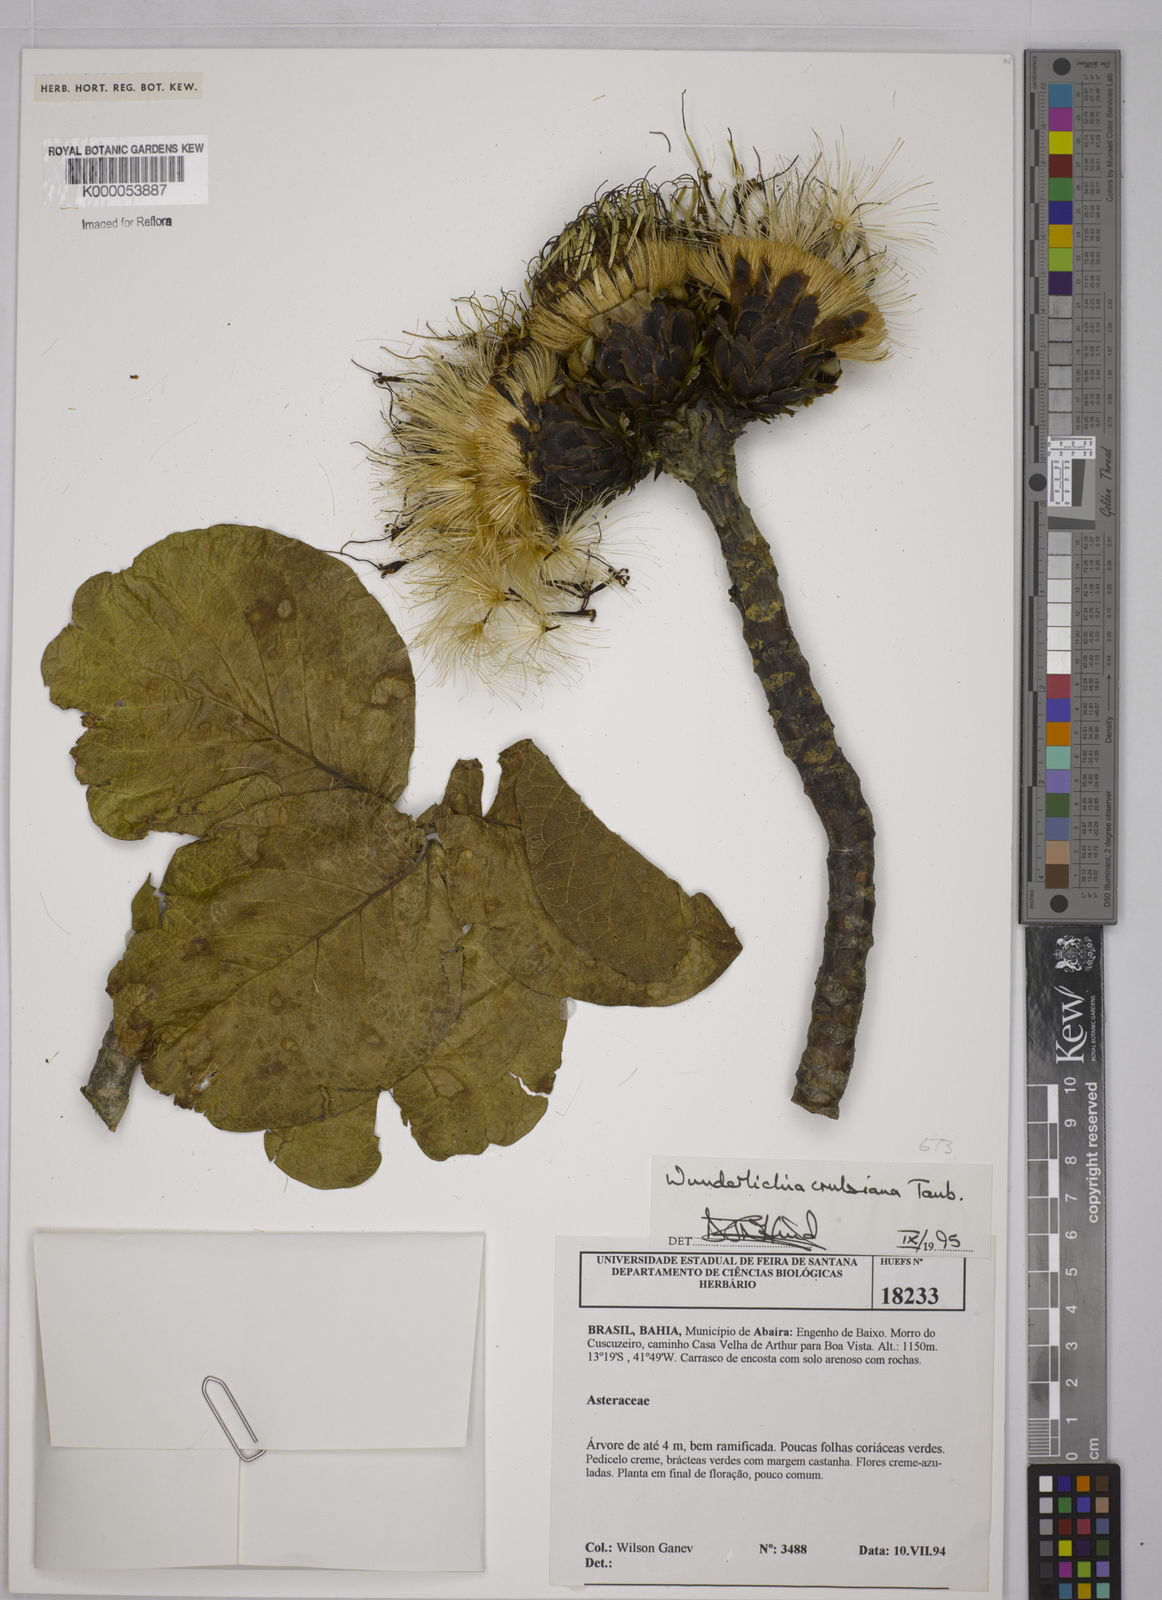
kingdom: Plantae
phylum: Tracheophyta
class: Magnoliopsida
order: Asterales
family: Asteraceae
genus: Wunderlichia
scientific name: Wunderlichia
